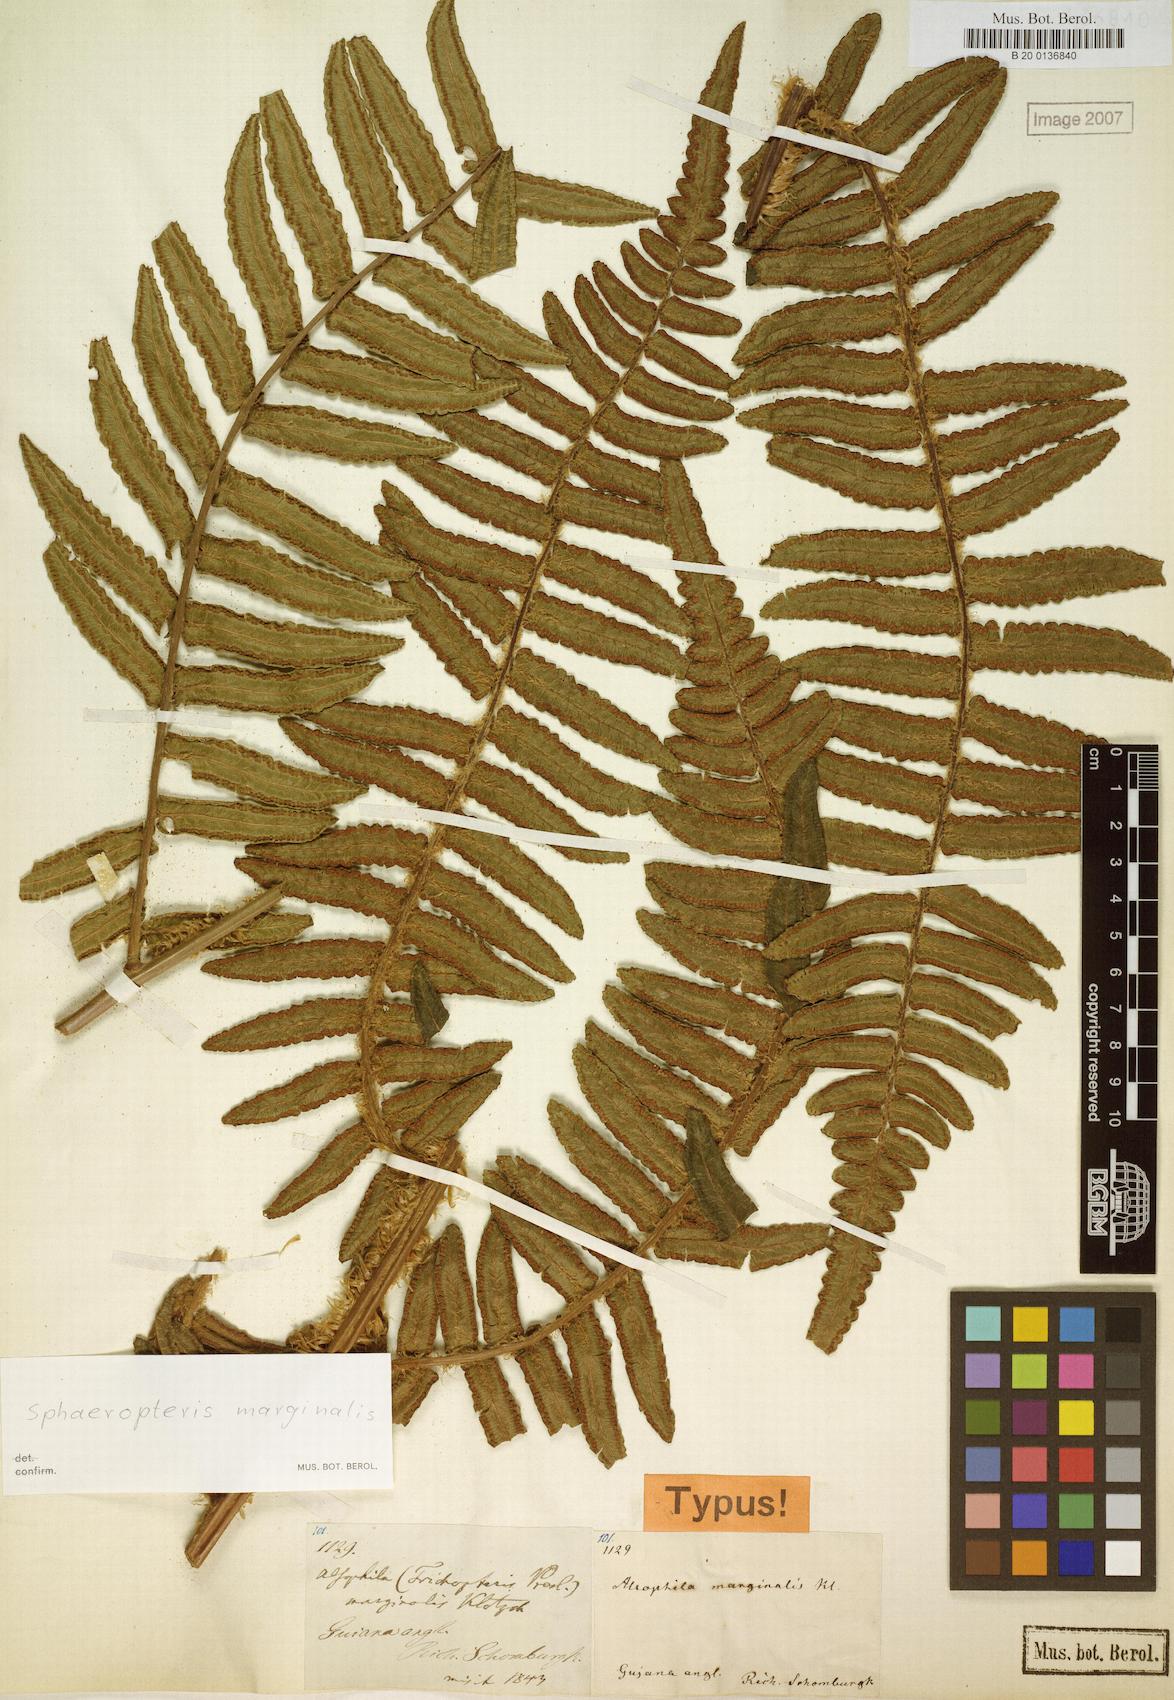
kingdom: Plantae
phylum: Tracheophyta
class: Polypodiopsida
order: Cyatheales
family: Cyatheaceae
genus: Cyathea
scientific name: Cyathea marginalis
